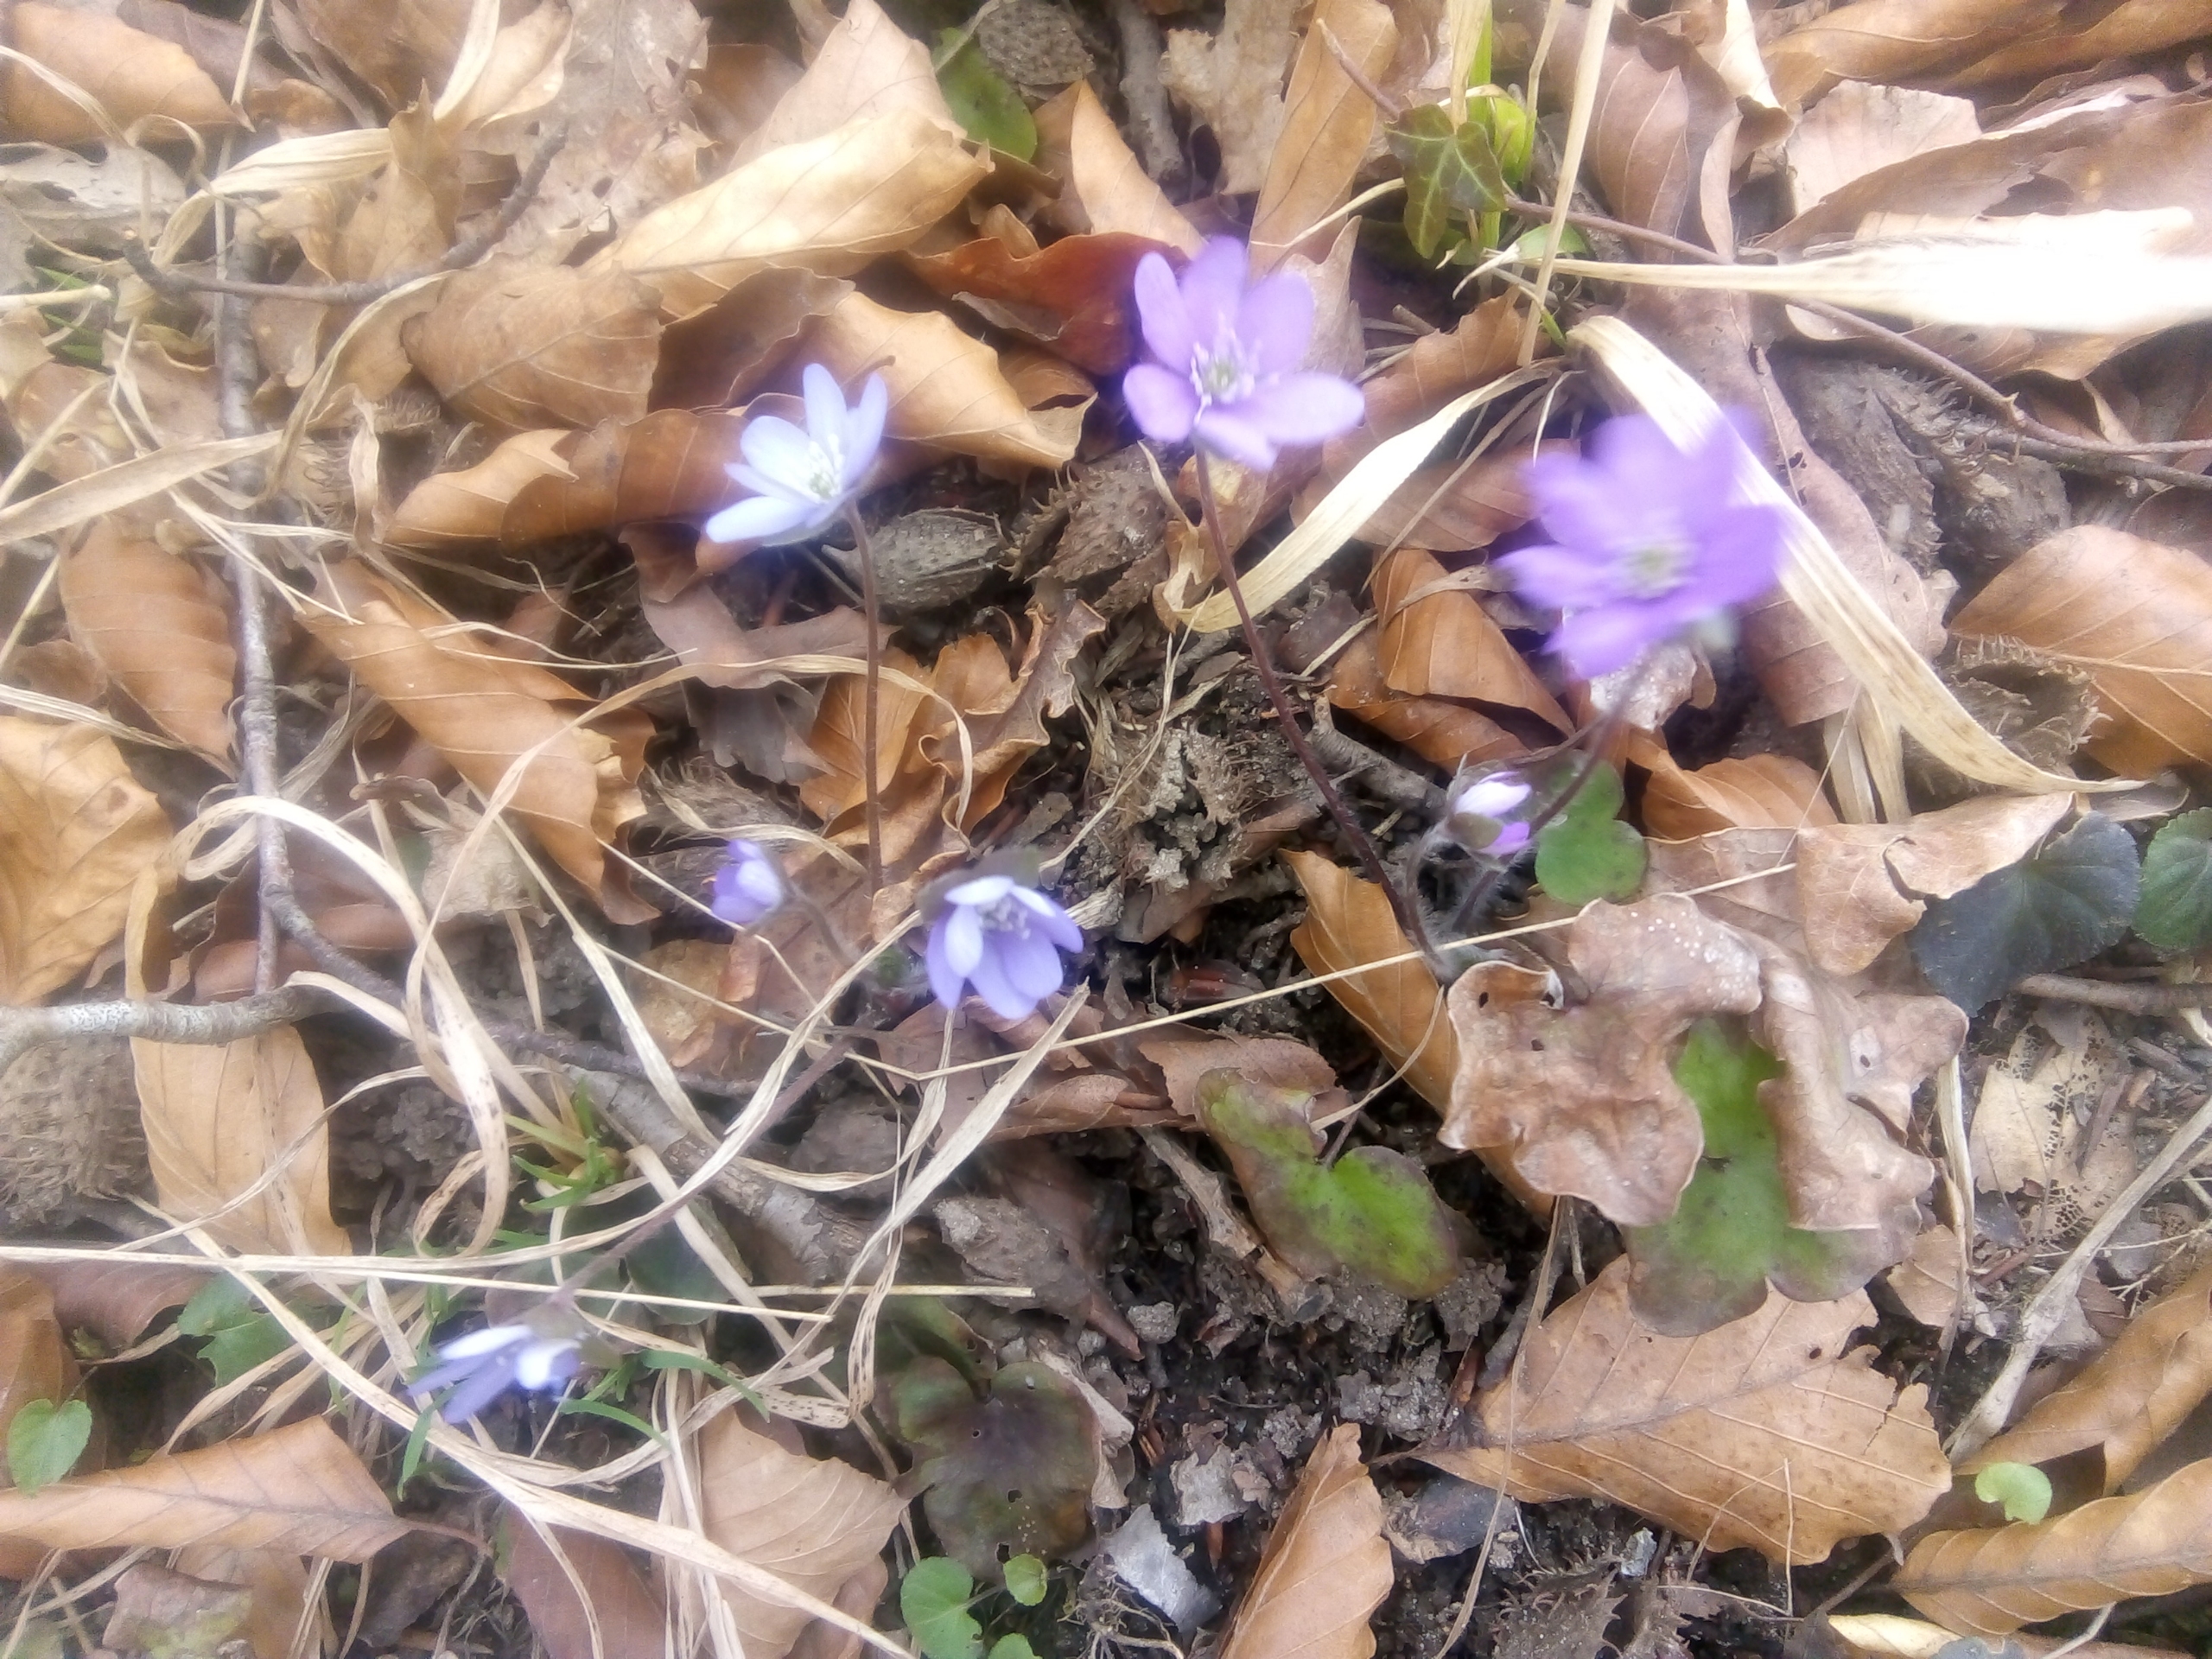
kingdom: Plantae
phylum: Tracheophyta
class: Magnoliopsida
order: Ranunculales
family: Ranunculaceae
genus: Hepatica
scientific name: Hepatica nobilis
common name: Blå anemone
